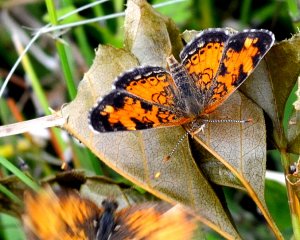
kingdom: Animalia
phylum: Arthropoda
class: Insecta
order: Lepidoptera
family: Nymphalidae
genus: Phyciodes
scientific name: Phyciodes tharos
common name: Northern Crescent
